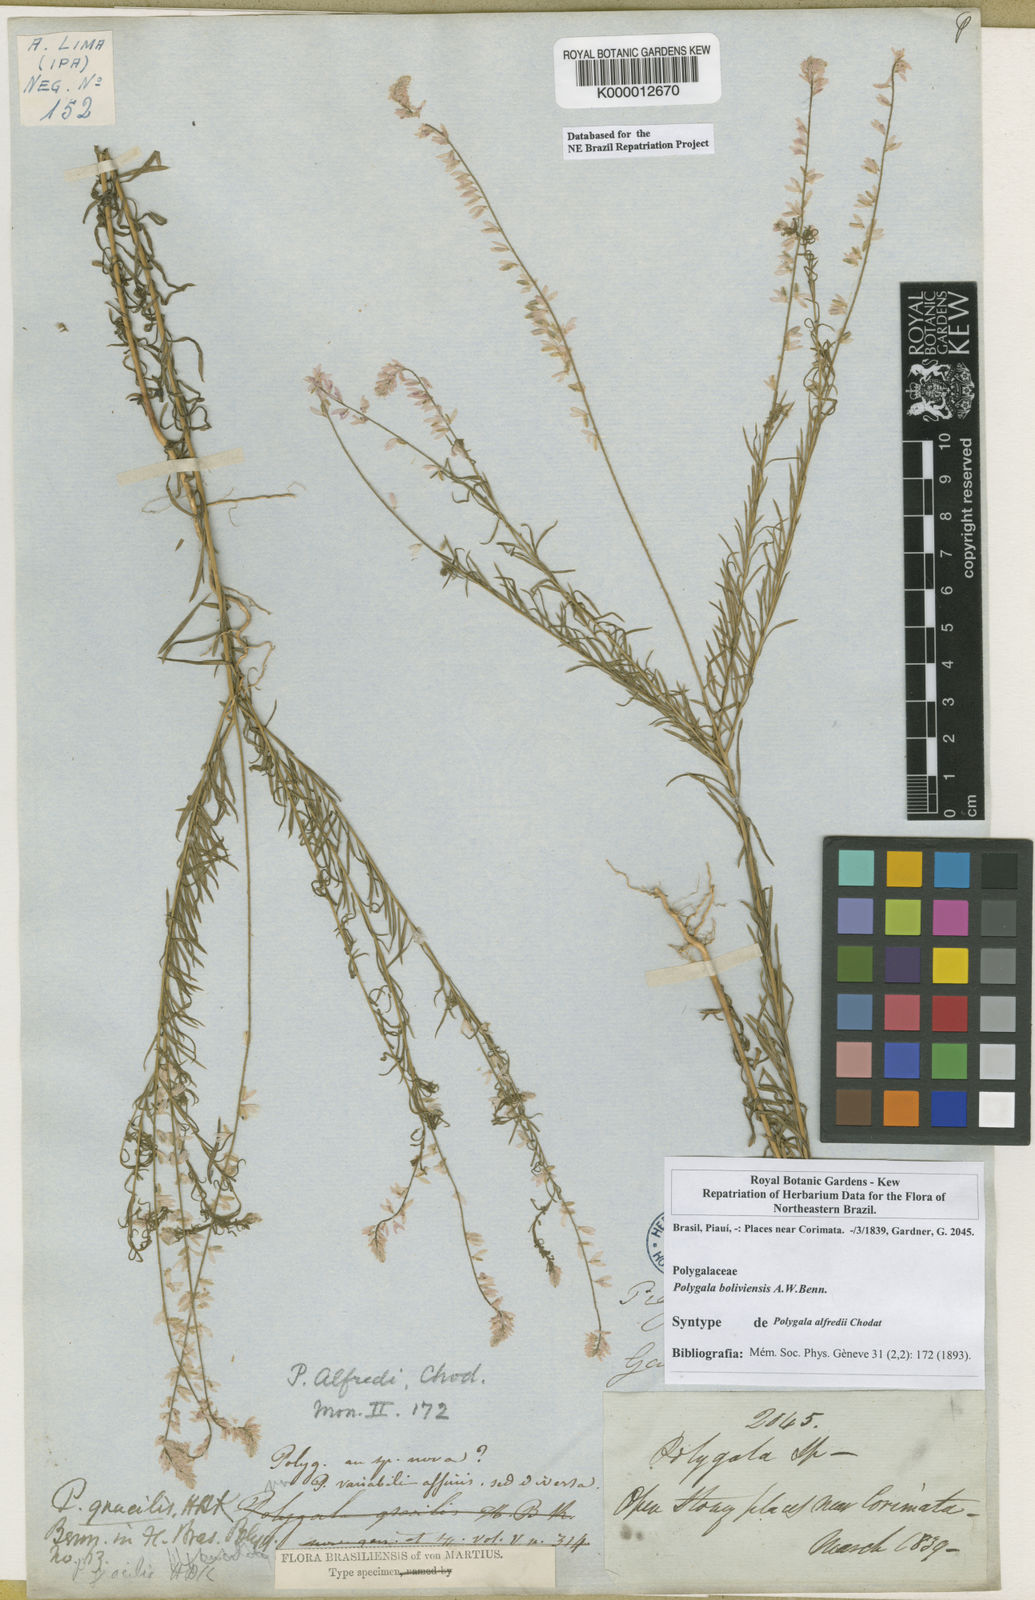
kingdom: Plantae
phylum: Tracheophyta
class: Magnoliopsida
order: Fabales
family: Polygalaceae
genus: Polygala
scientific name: Polygala
